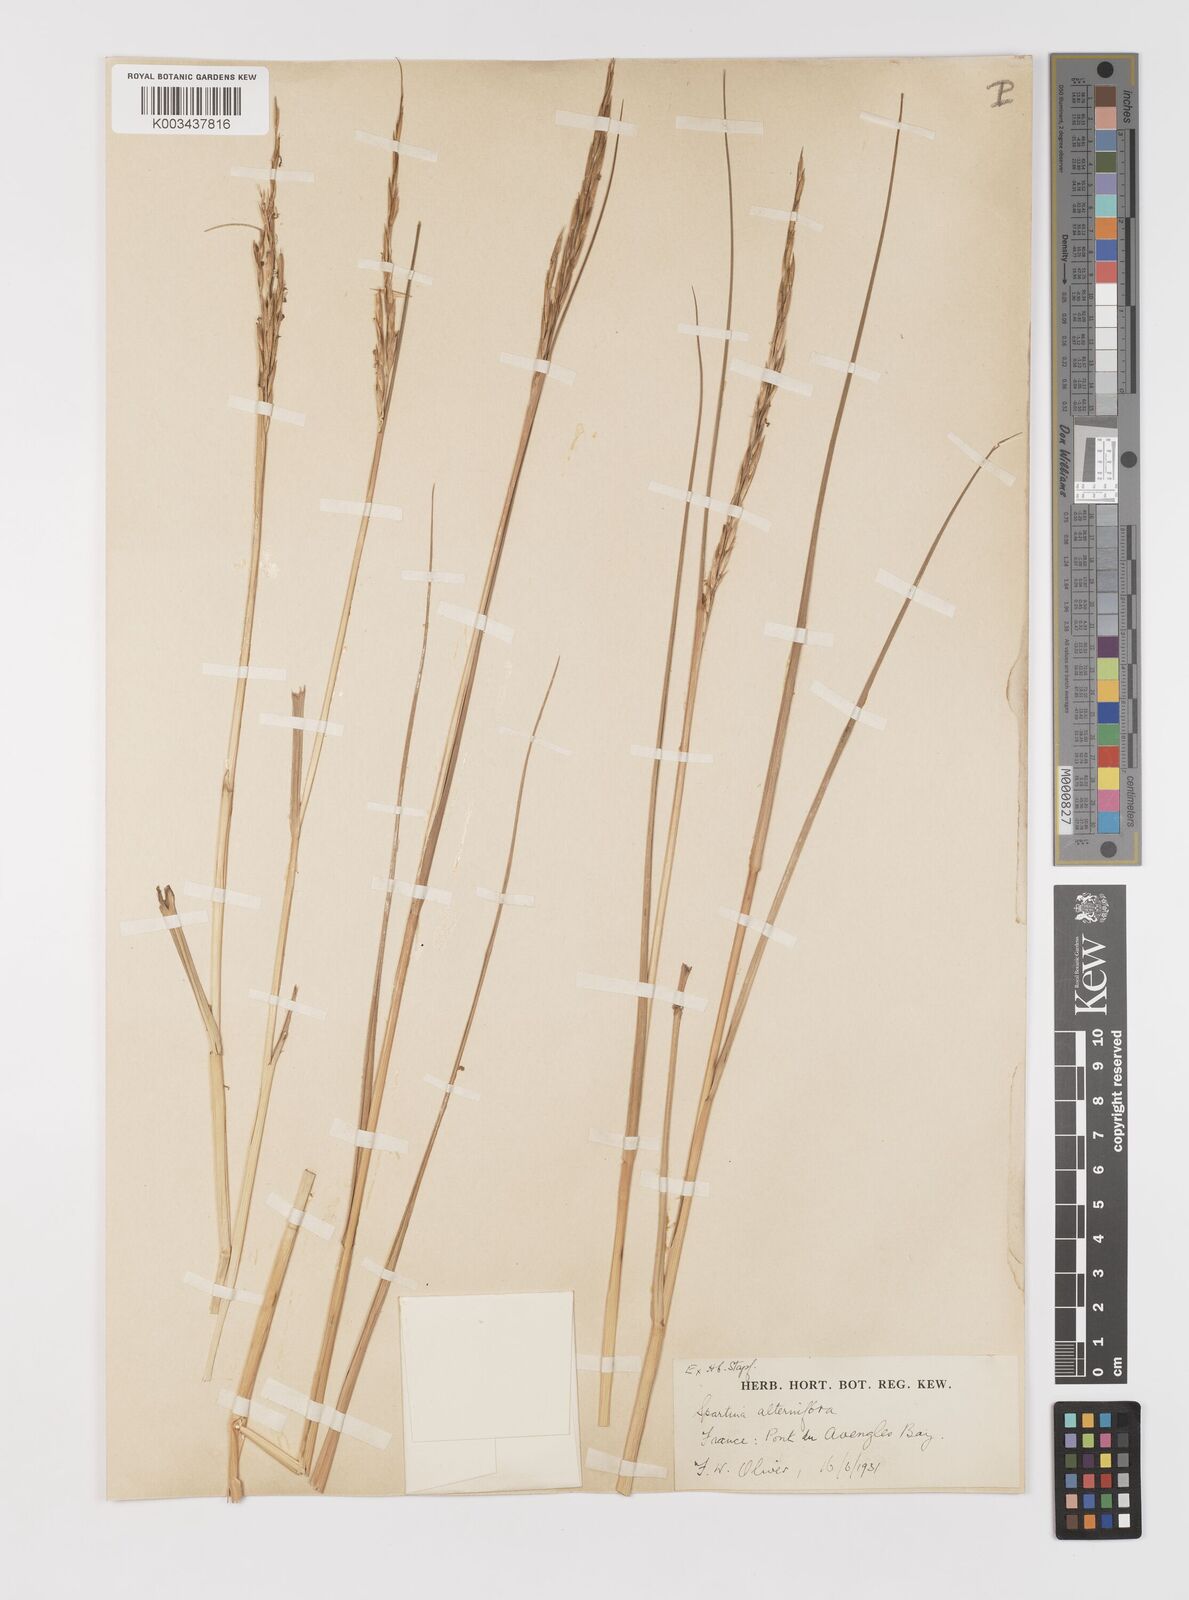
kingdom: Plantae
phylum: Tracheophyta
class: Liliopsida
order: Poales
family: Poaceae
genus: Sporobolus
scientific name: Sporobolus alterniflorus
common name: Atlantic cordgrass
